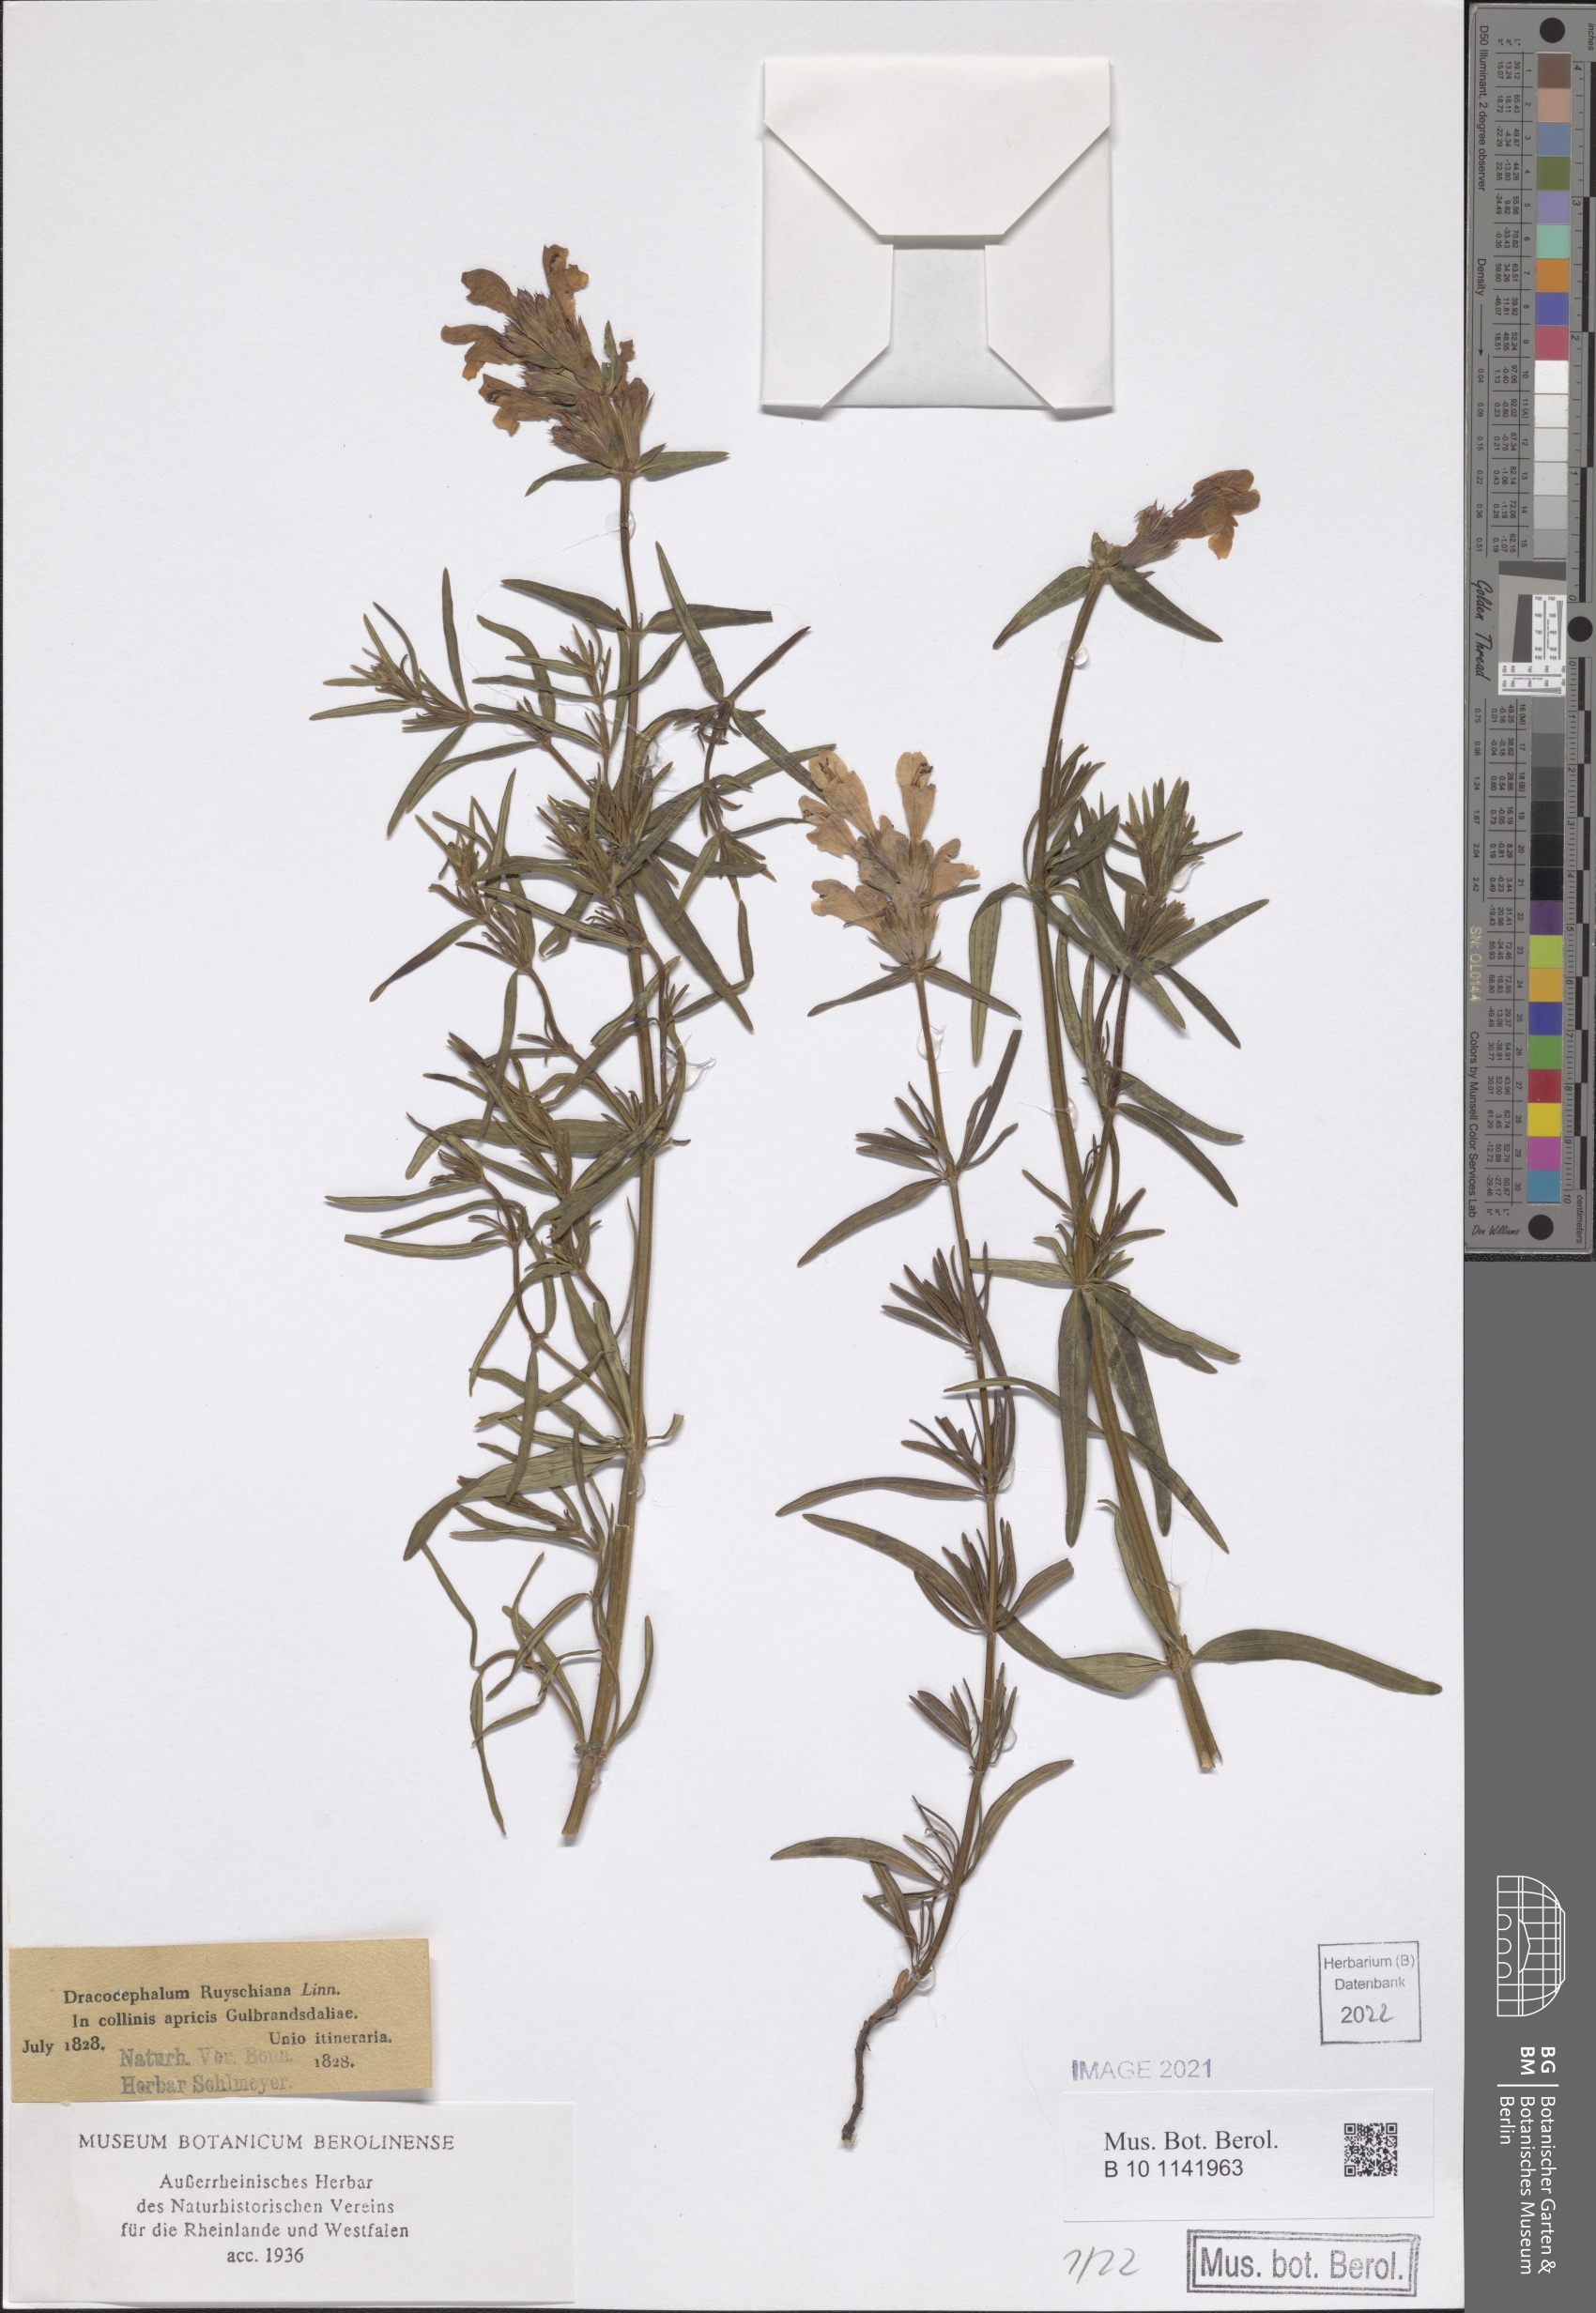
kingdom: Plantae
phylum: Tracheophyta
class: Magnoliopsida
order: Lamiales
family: Lamiaceae
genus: Dracocephalum
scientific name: Dracocephalum ruyschiana
